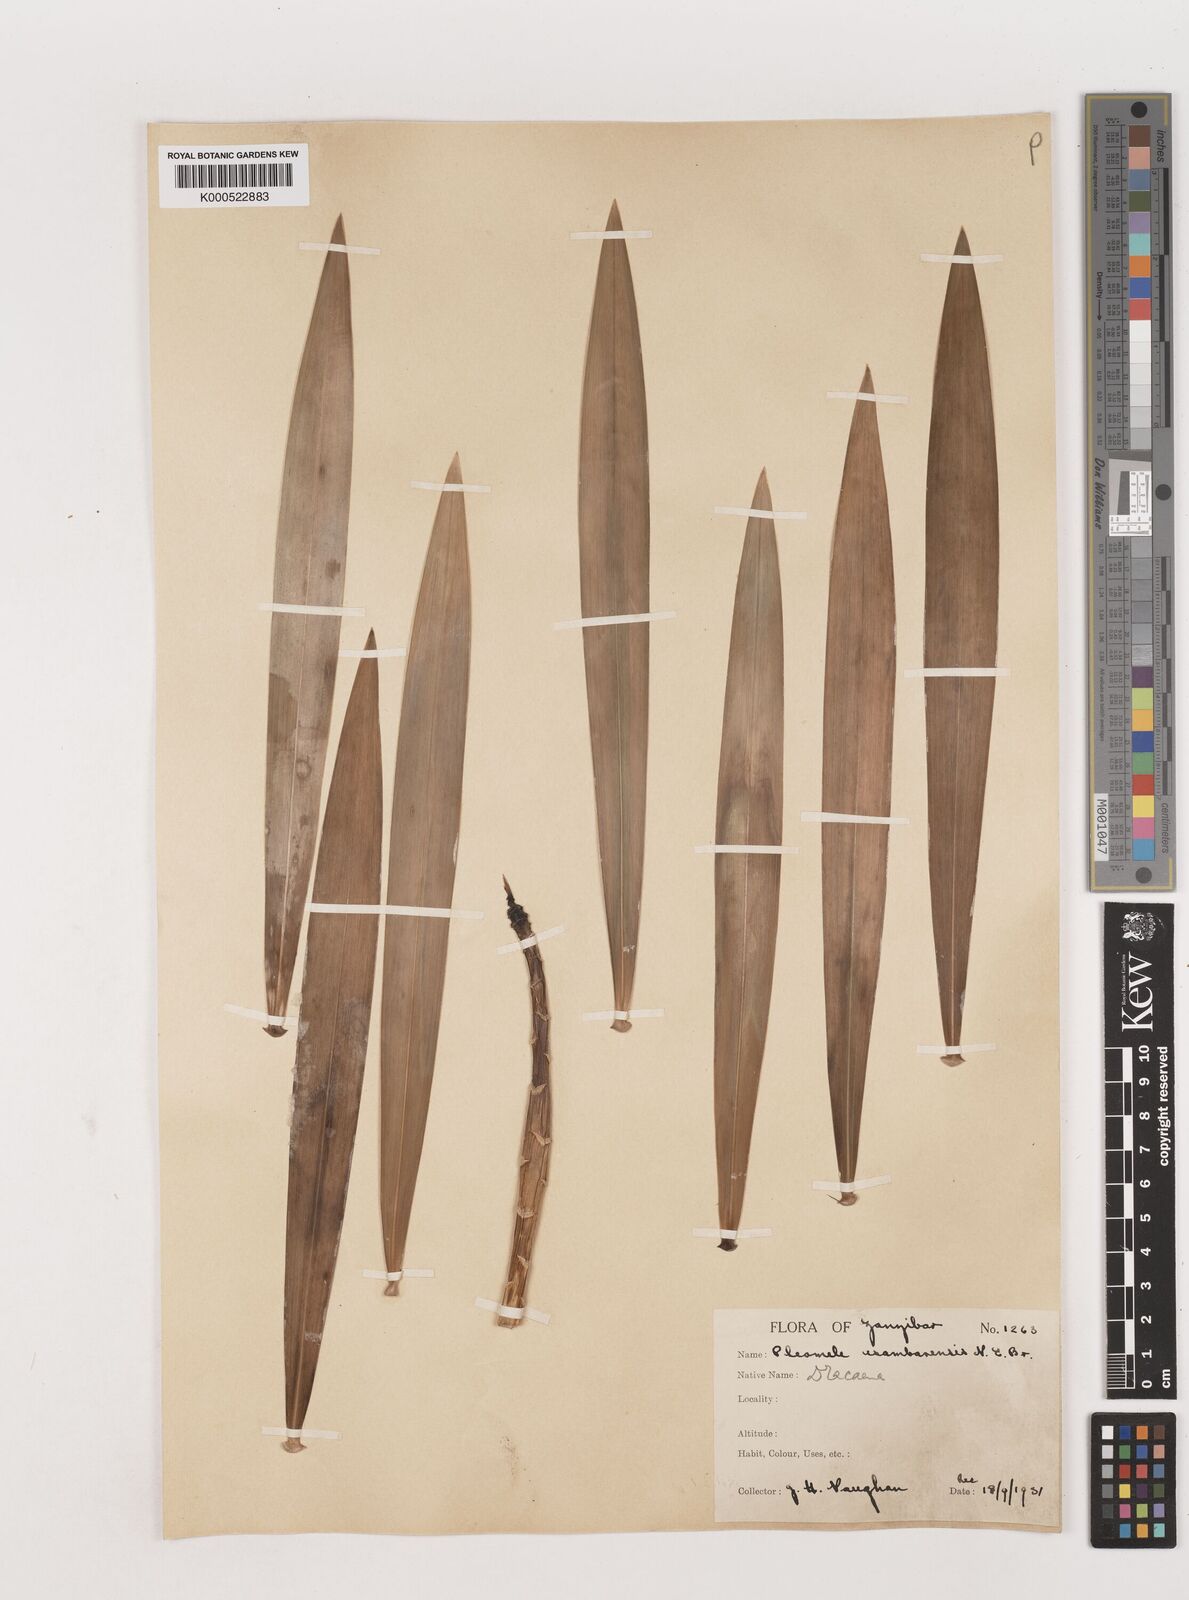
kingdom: Plantae
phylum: Tracheophyta
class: Liliopsida
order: Asparagales
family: Asparagaceae
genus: Dracaena
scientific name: Dracaena usambarensis
